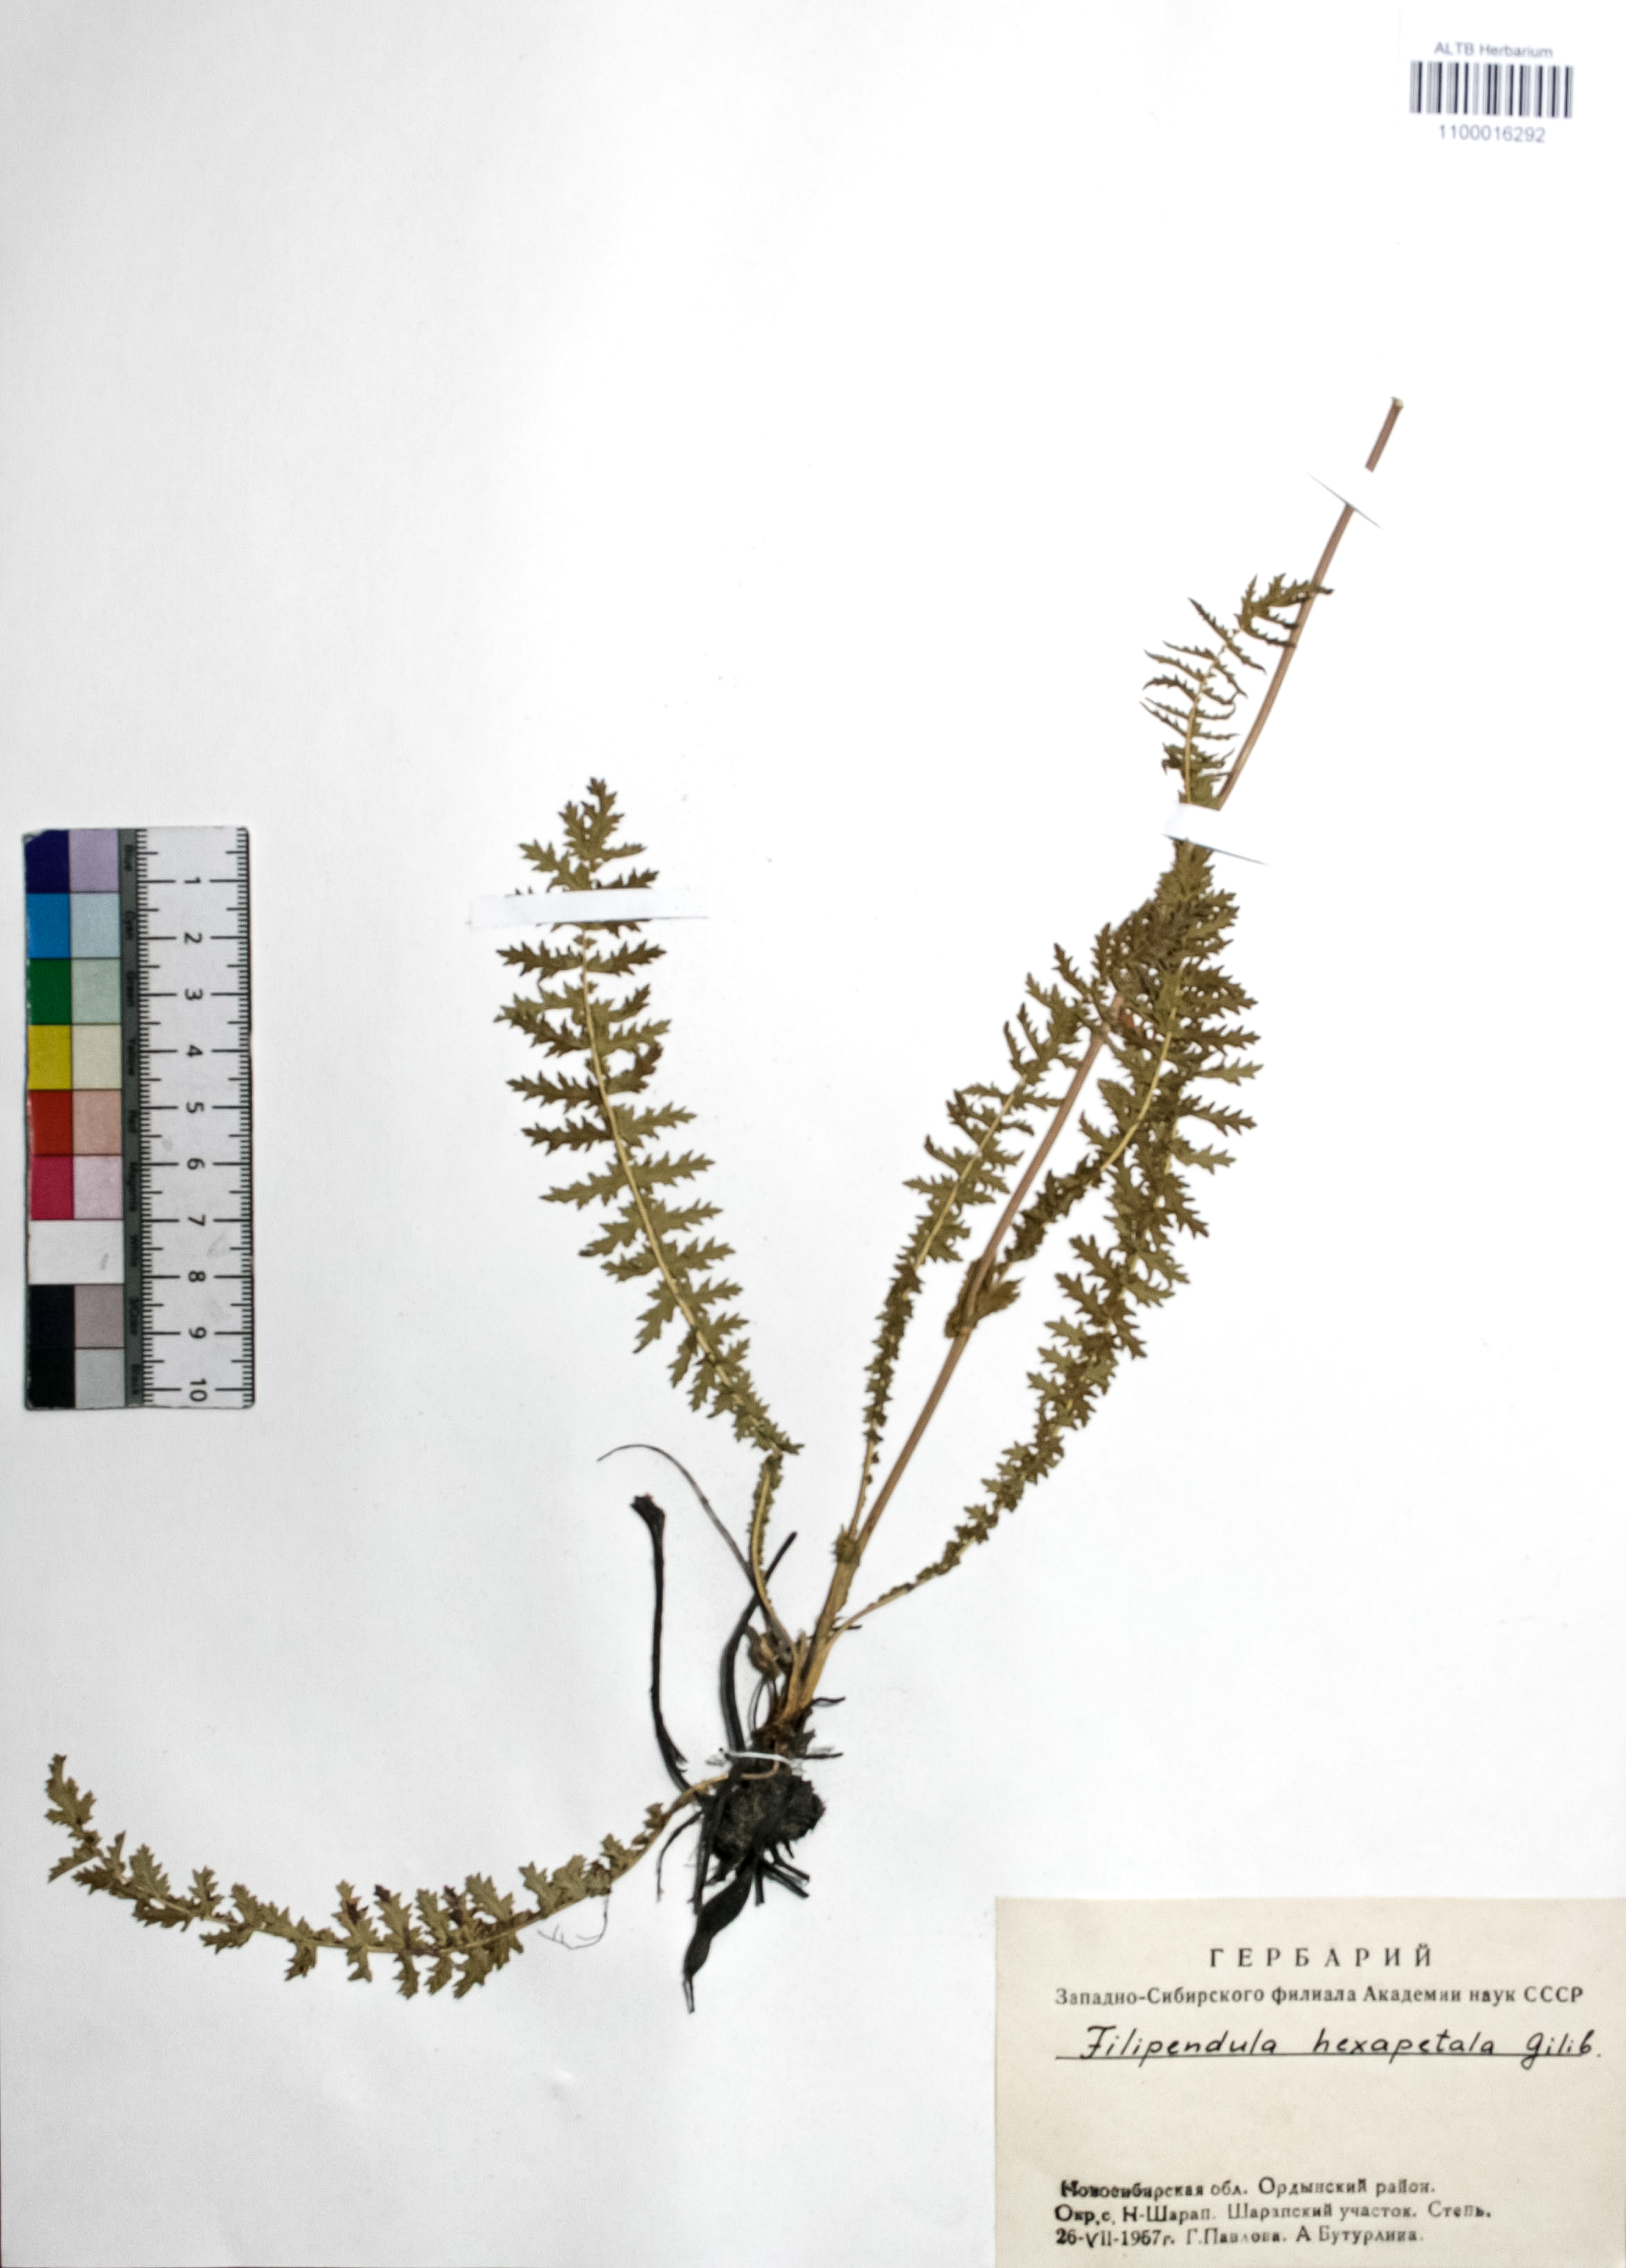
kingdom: Plantae
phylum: Tracheophyta
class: Magnoliopsida
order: Rosales
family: Rosaceae
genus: Filipendula
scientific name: Filipendula vulgaris
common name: Dropwort
